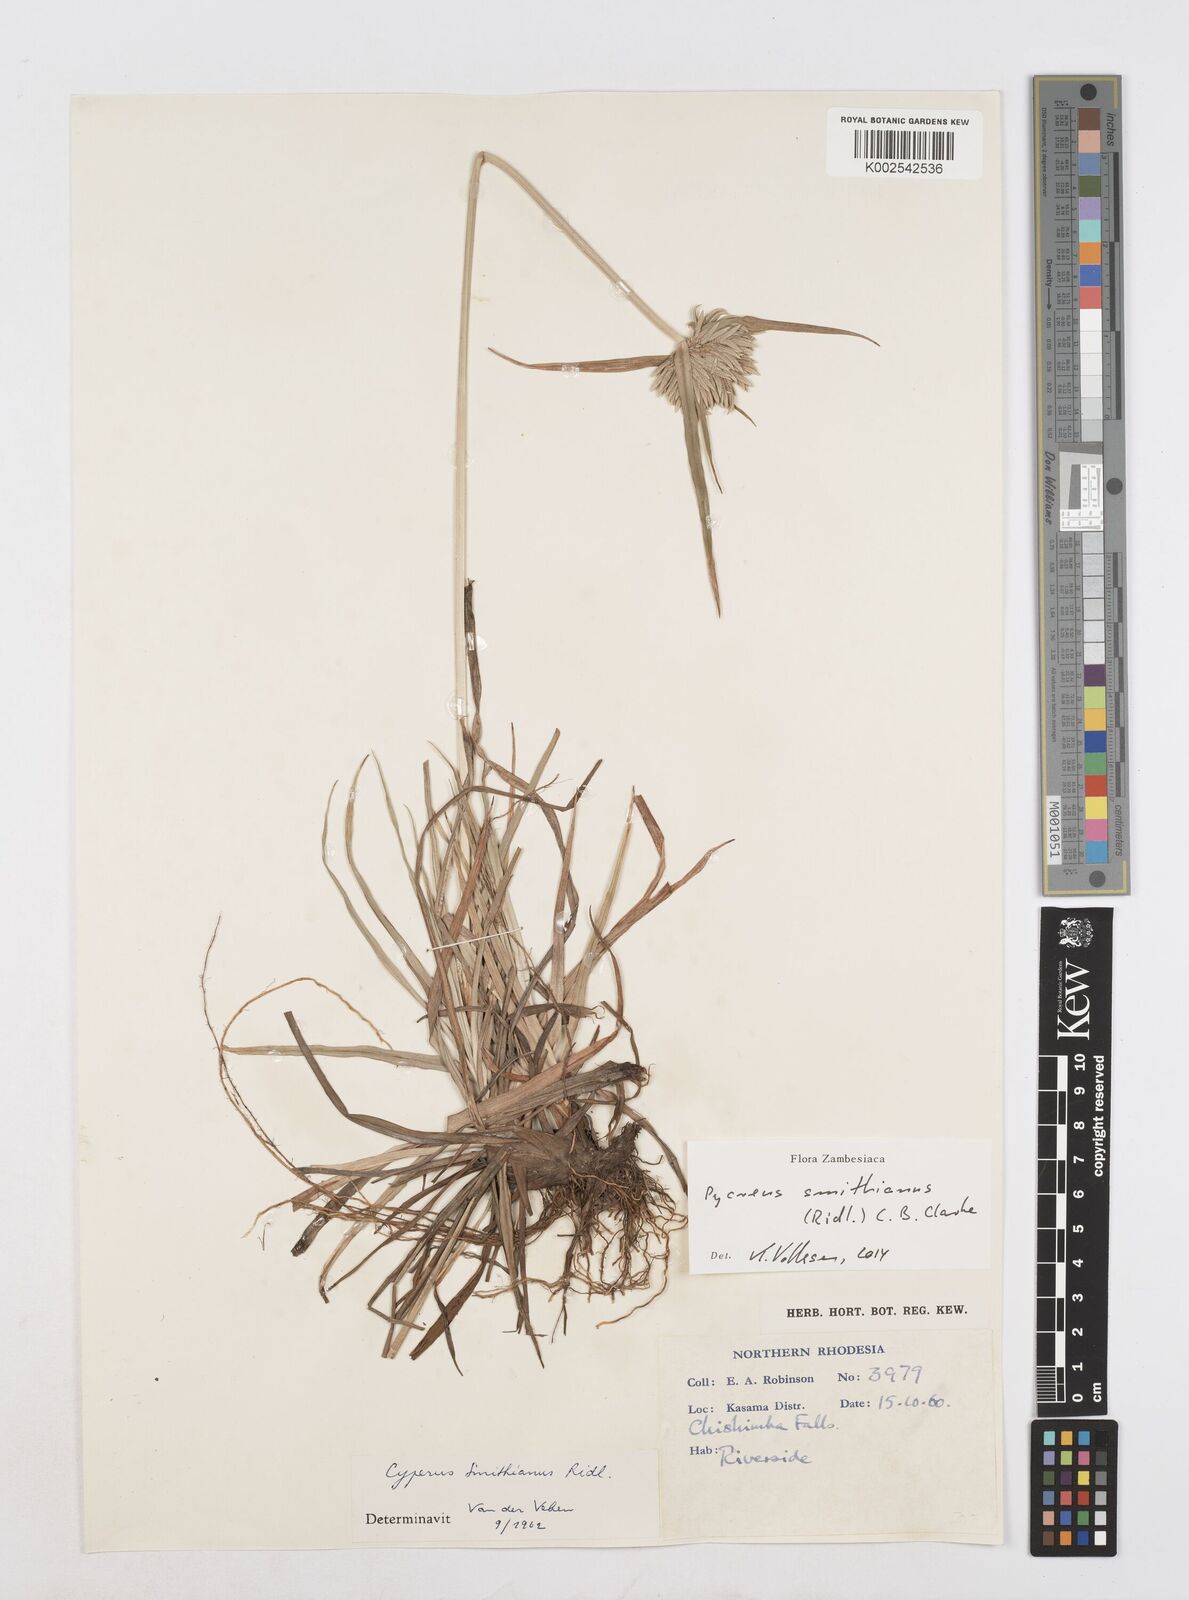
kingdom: Plantae
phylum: Tracheophyta
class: Liliopsida
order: Poales
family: Cyperaceae
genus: Cyperus
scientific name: Cyperus smithianus
